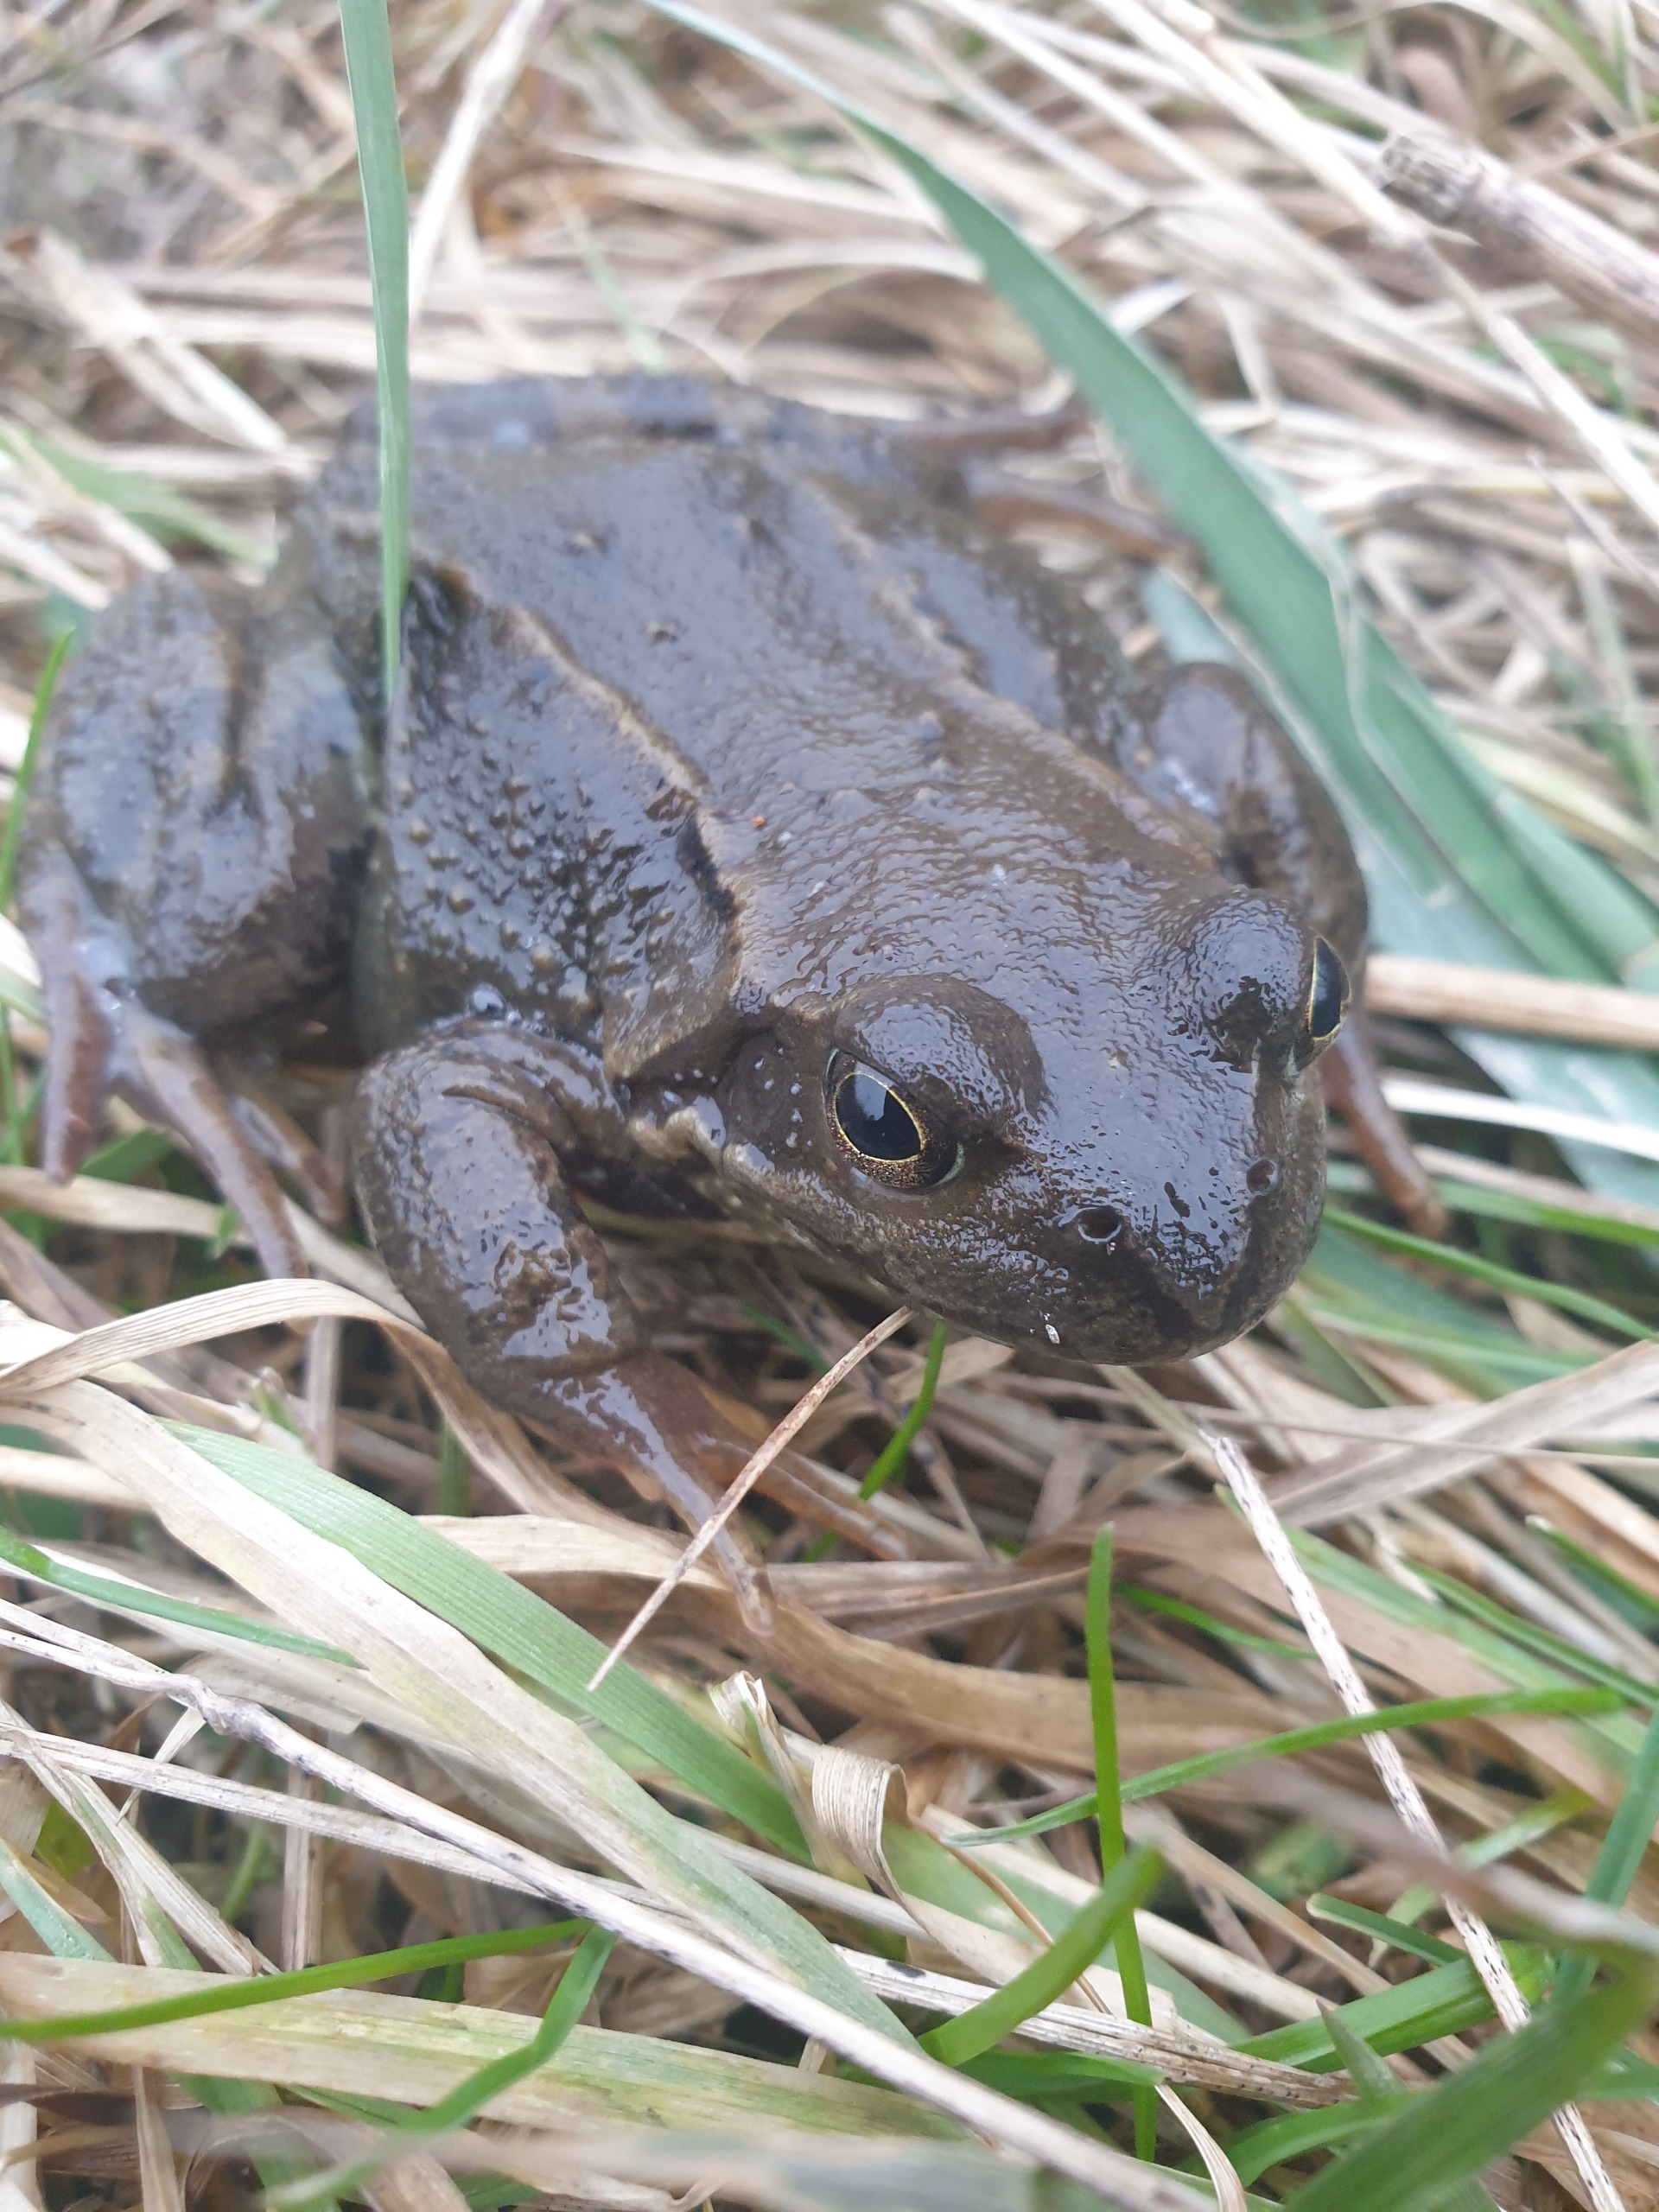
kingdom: Animalia
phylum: Chordata
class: Amphibia
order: Anura
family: Ranidae
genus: Rana
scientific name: Rana temporaria
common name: Butsnudet frø
